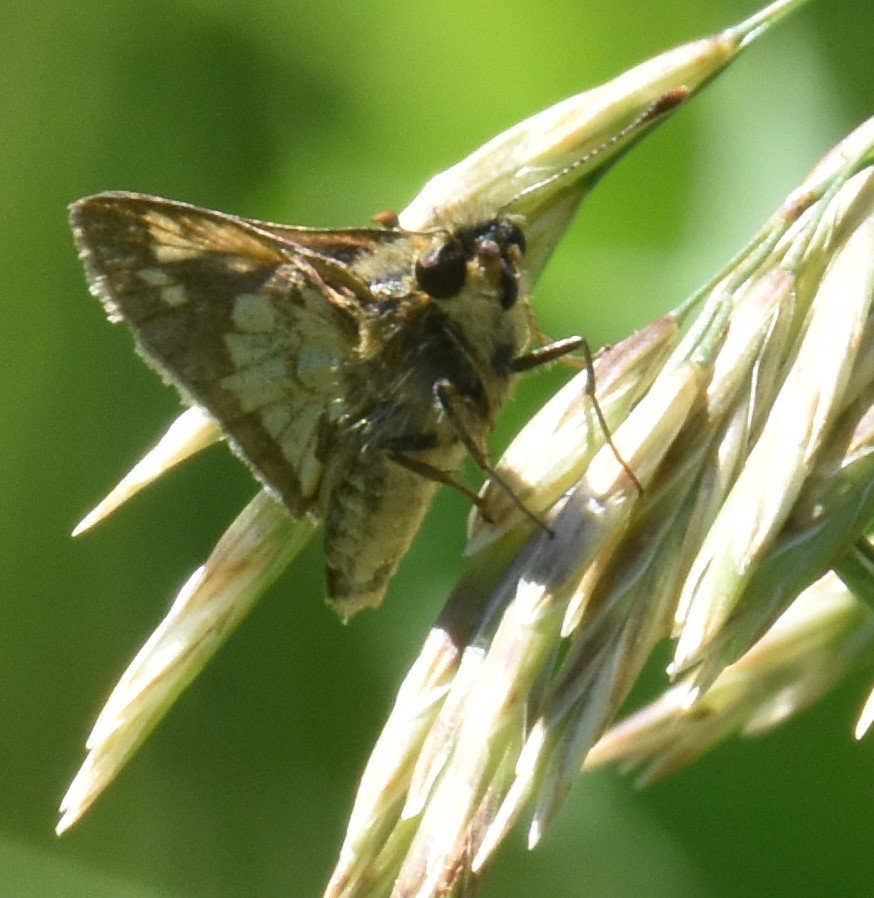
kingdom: Animalia
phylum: Arthropoda
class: Insecta
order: Lepidoptera
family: Hesperiidae
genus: Polites
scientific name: Polites coras
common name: Peck's Skipper
